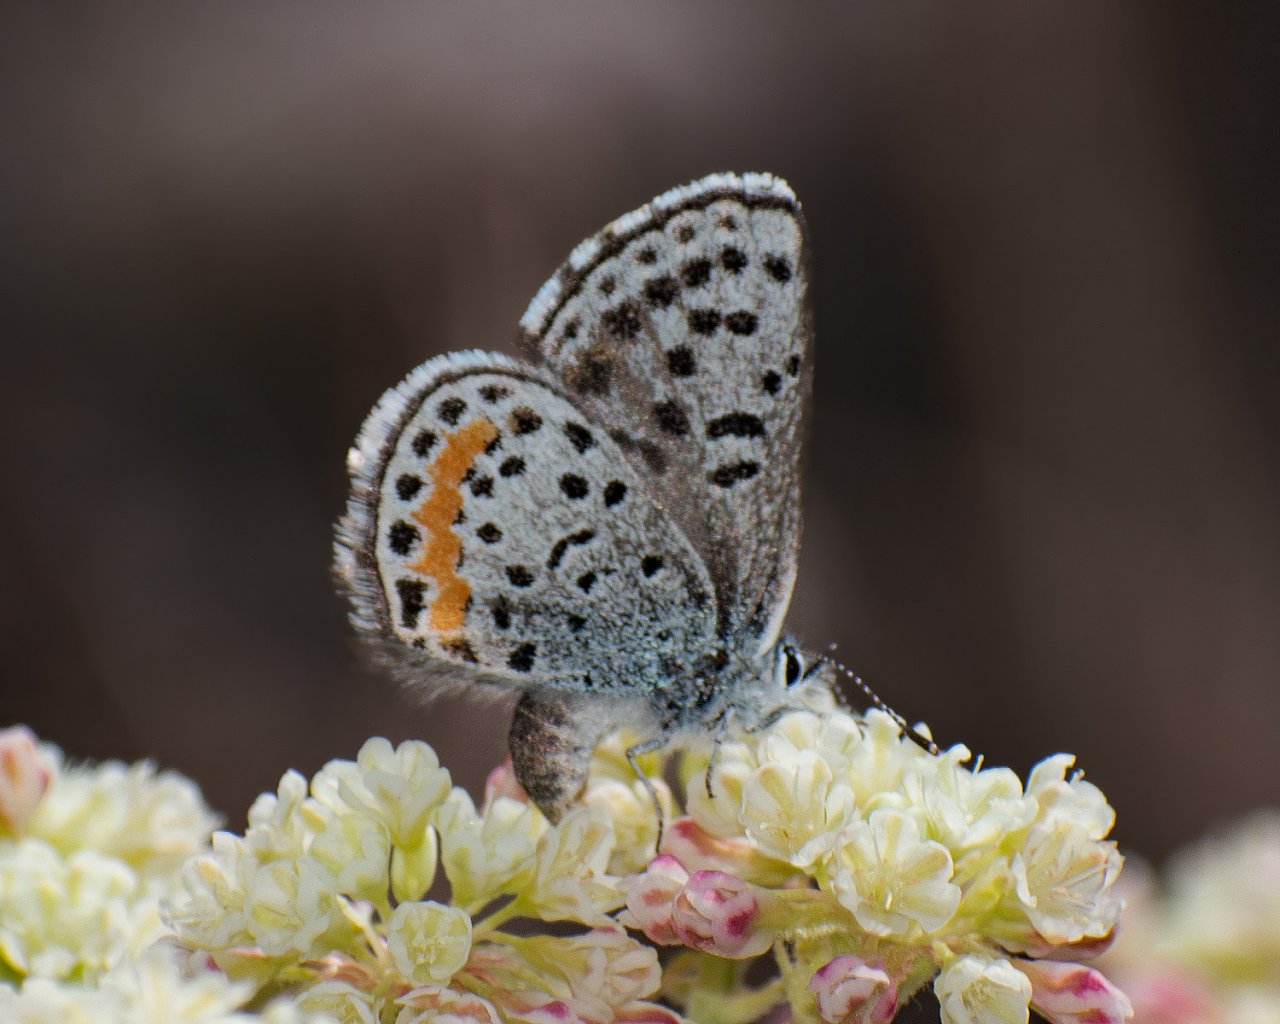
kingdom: Animalia
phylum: Arthropoda
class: Insecta
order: Lepidoptera
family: Lycaenidae
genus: Euphilotes
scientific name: Euphilotes
